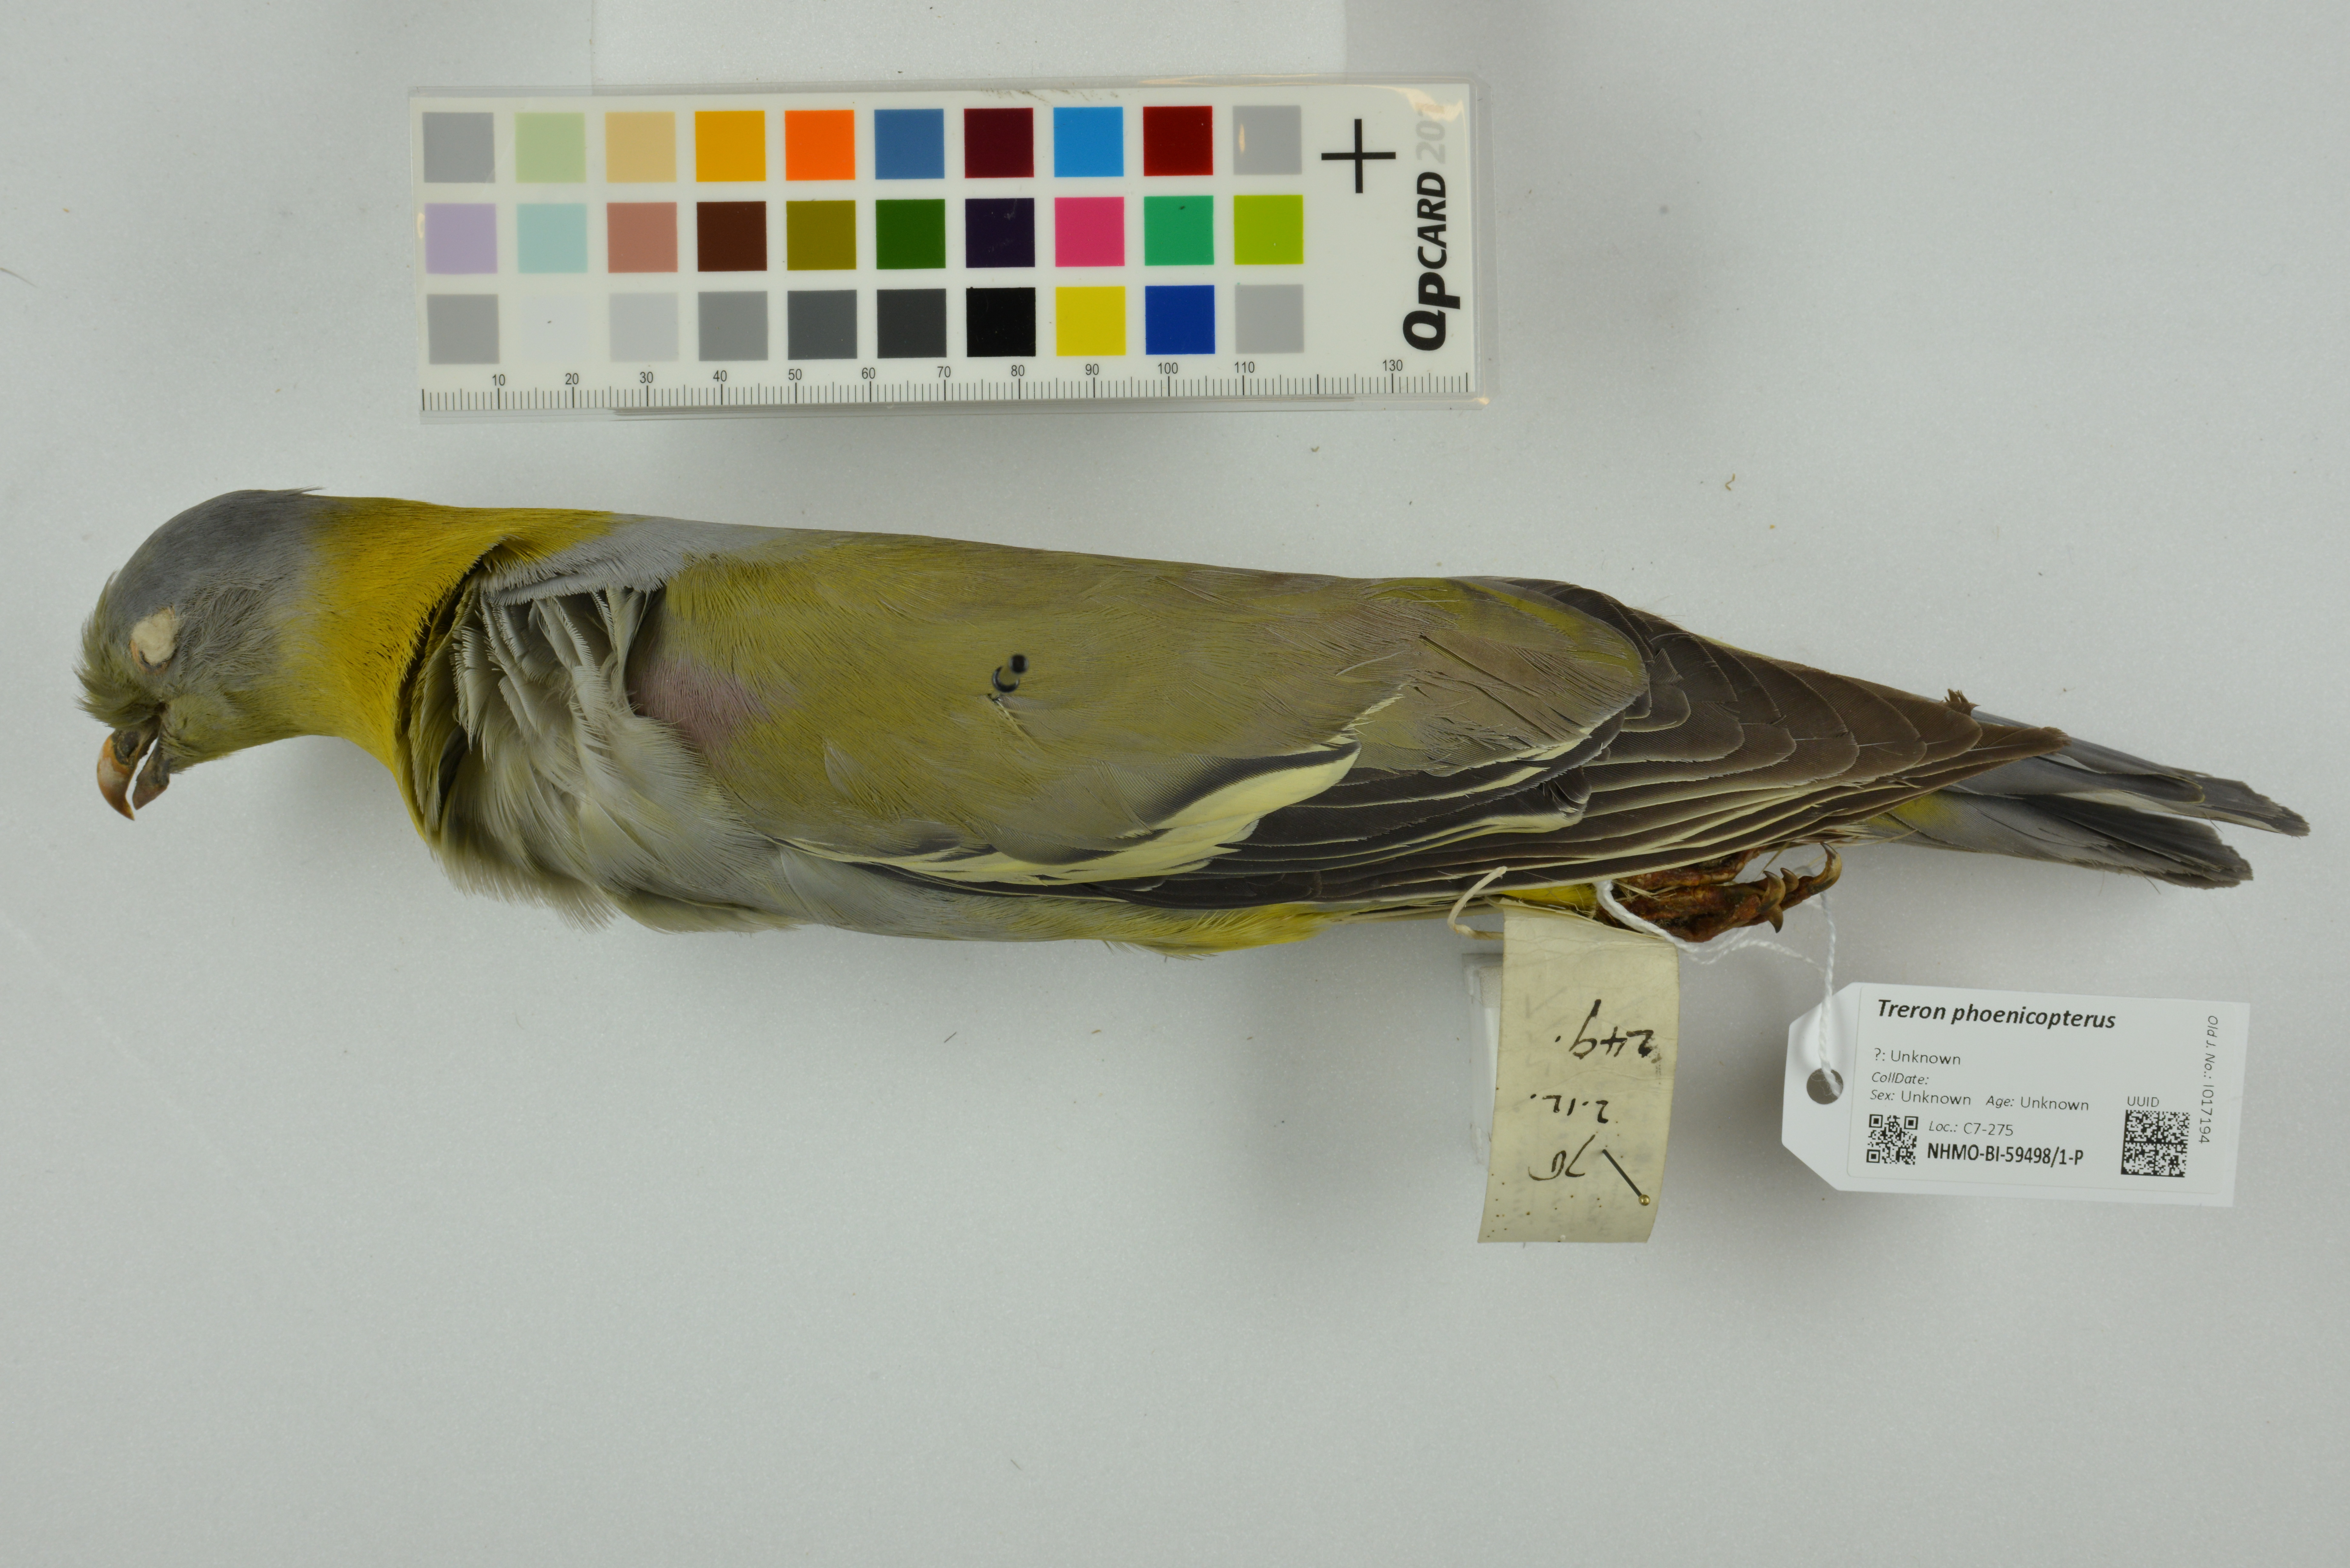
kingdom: Animalia
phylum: Chordata
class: Aves
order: Columbiformes
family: Columbidae
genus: Treron
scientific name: Treron phoenicopterus
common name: Yellow-footed green pigeon
